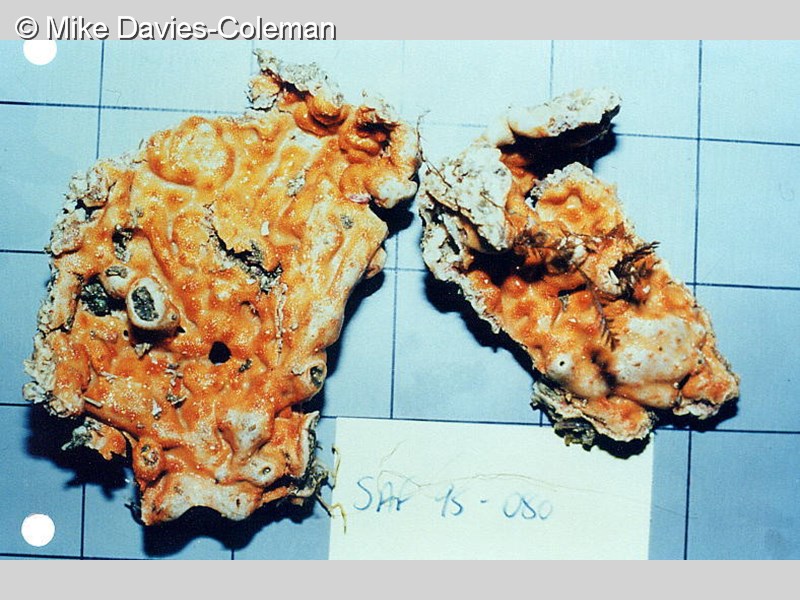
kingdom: Animalia
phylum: Chordata
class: Ascidiacea
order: Aplousobranchia
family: Didemnidae
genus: Didemnum
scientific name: Didemnum
